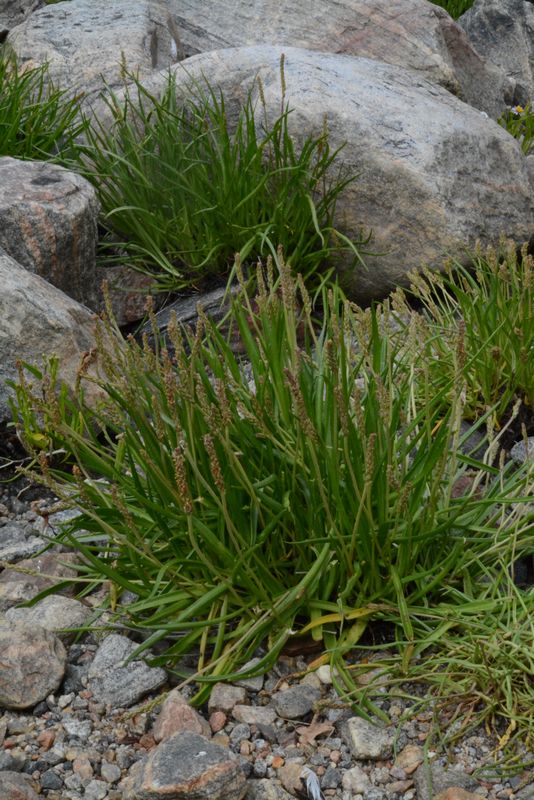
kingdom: Plantae
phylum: Tracheophyta
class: Magnoliopsida
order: Lamiales
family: Plantaginaceae
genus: Plantago
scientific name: Plantago maritima
